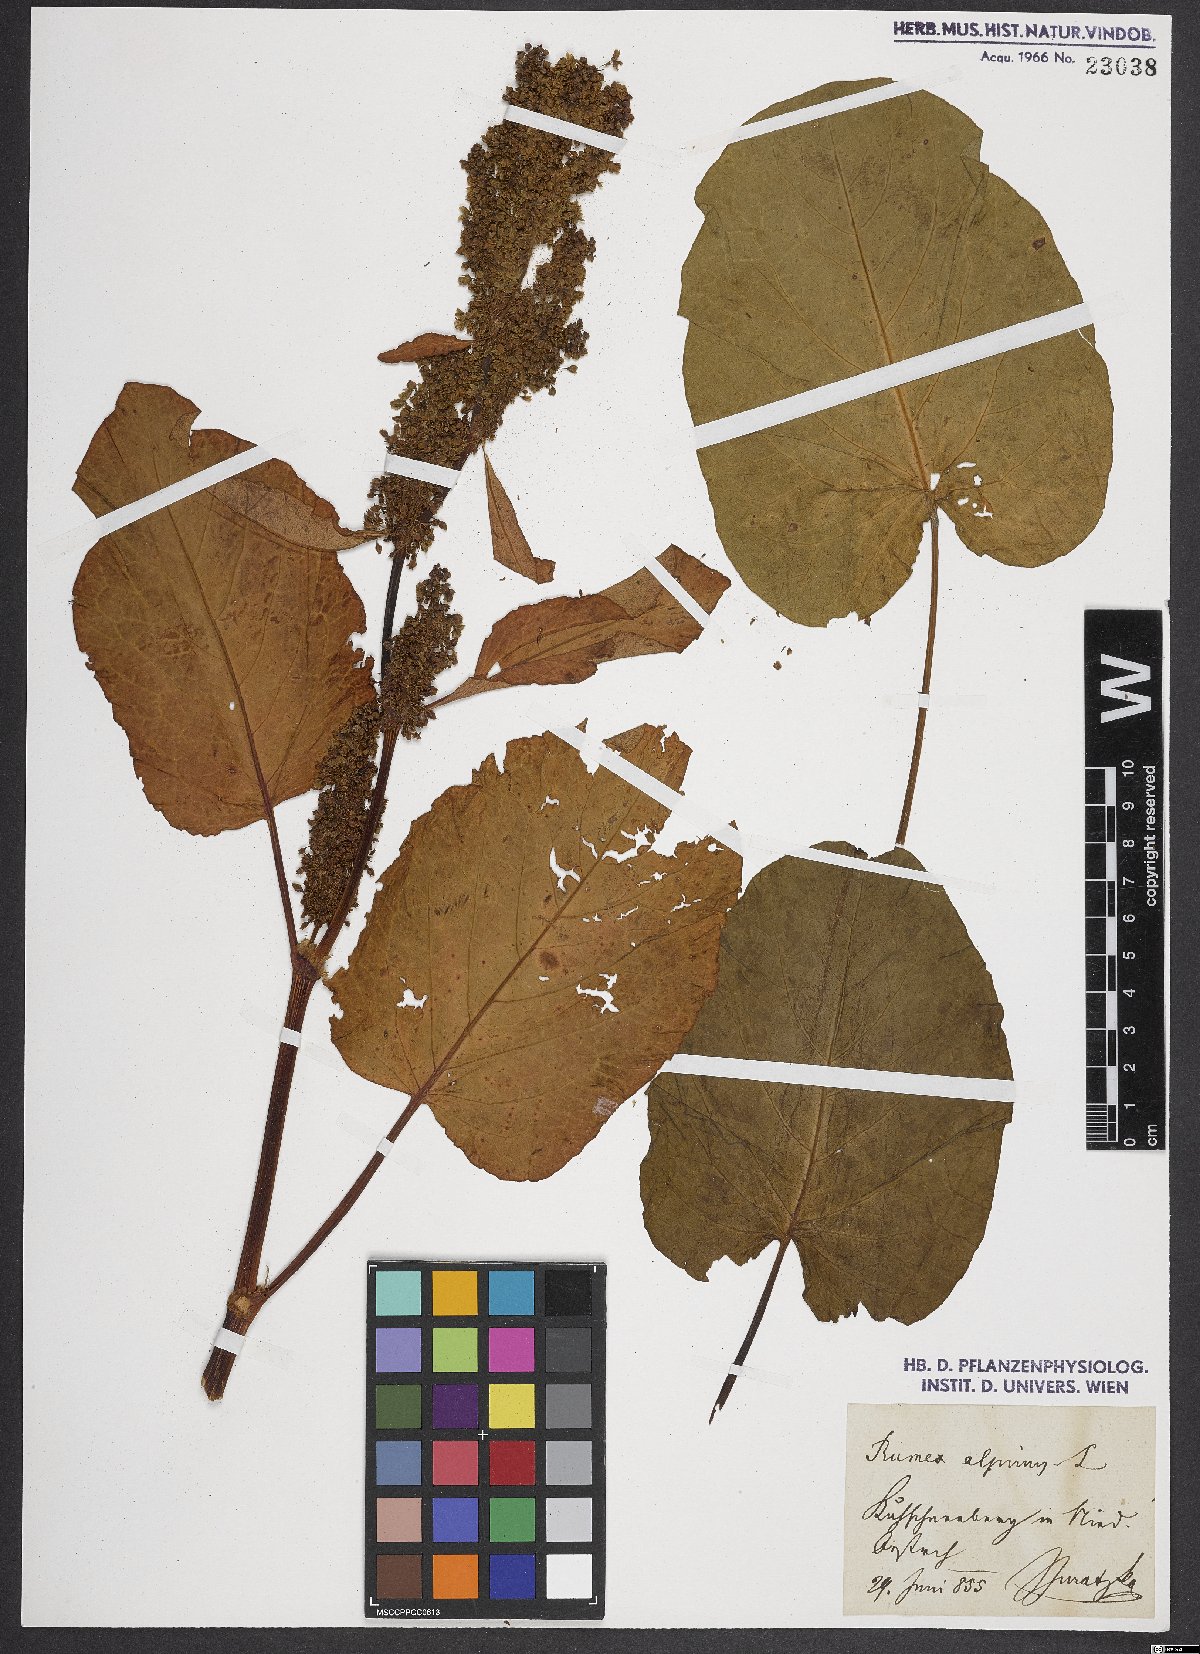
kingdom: Plantae
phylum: Tracheophyta
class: Magnoliopsida
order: Caryophyllales
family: Polygonaceae
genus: Rumex
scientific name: Rumex alpinus
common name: Alpine dock
